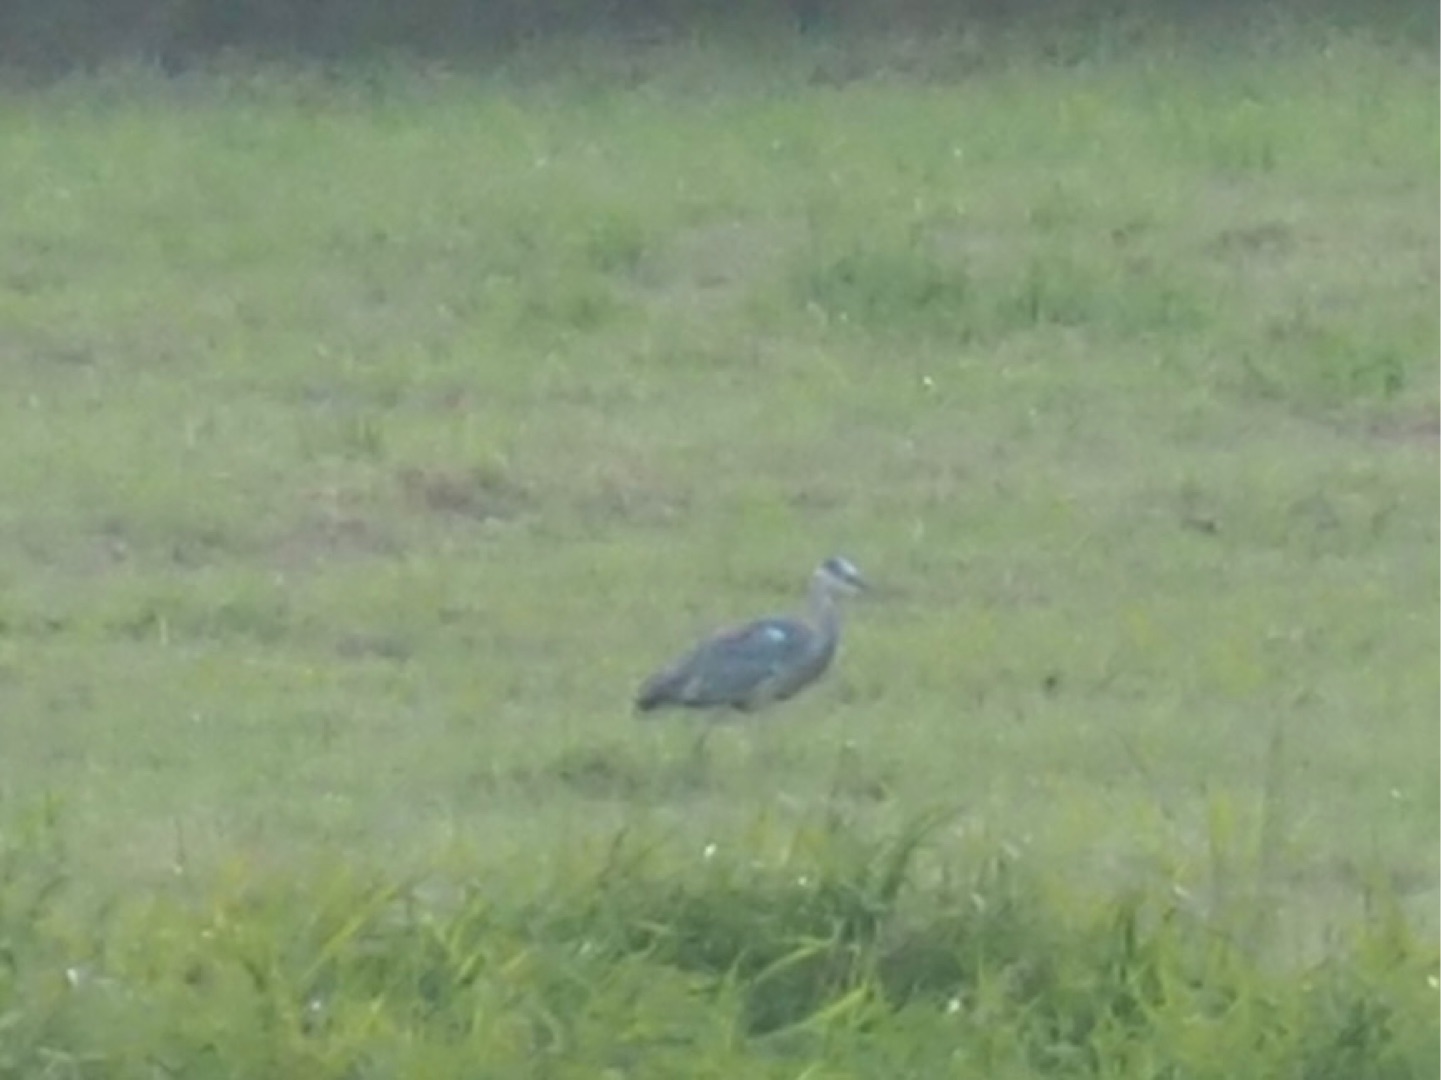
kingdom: Animalia
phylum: Chordata
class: Aves
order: Pelecaniformes
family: Ardeidae
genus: Ardea
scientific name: Ardea cinerea
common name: Fiskehejre
